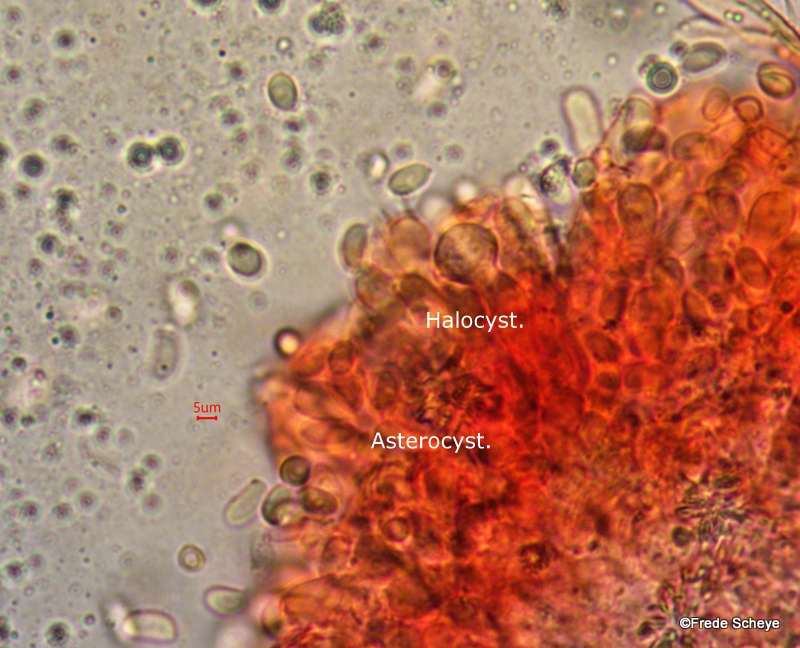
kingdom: Fungi
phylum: Basidiomycota
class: Agaricomycetes
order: Hymenochaetales
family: Rickenellaceae
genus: Resinicium
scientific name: Resinicium bicolor
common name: almindelig vokstand
